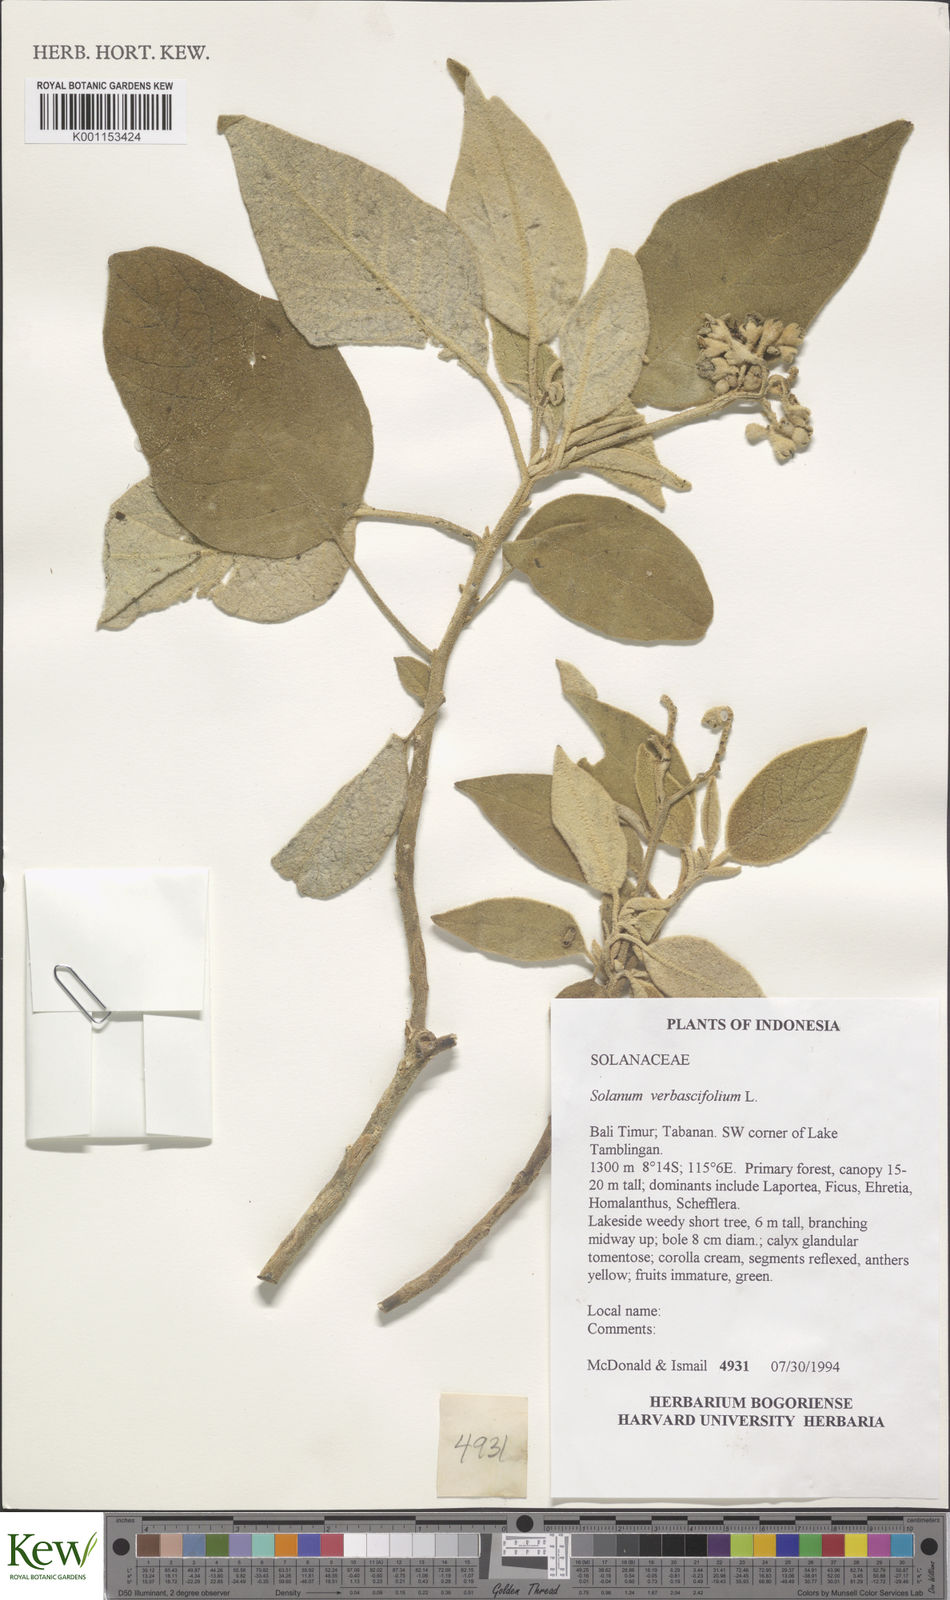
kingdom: Plantae
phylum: Tracheophyta
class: Magnoliopsida
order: Solanales
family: Solanaceae
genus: Solanum
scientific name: Solanum donianum
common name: Mullein nightshade
